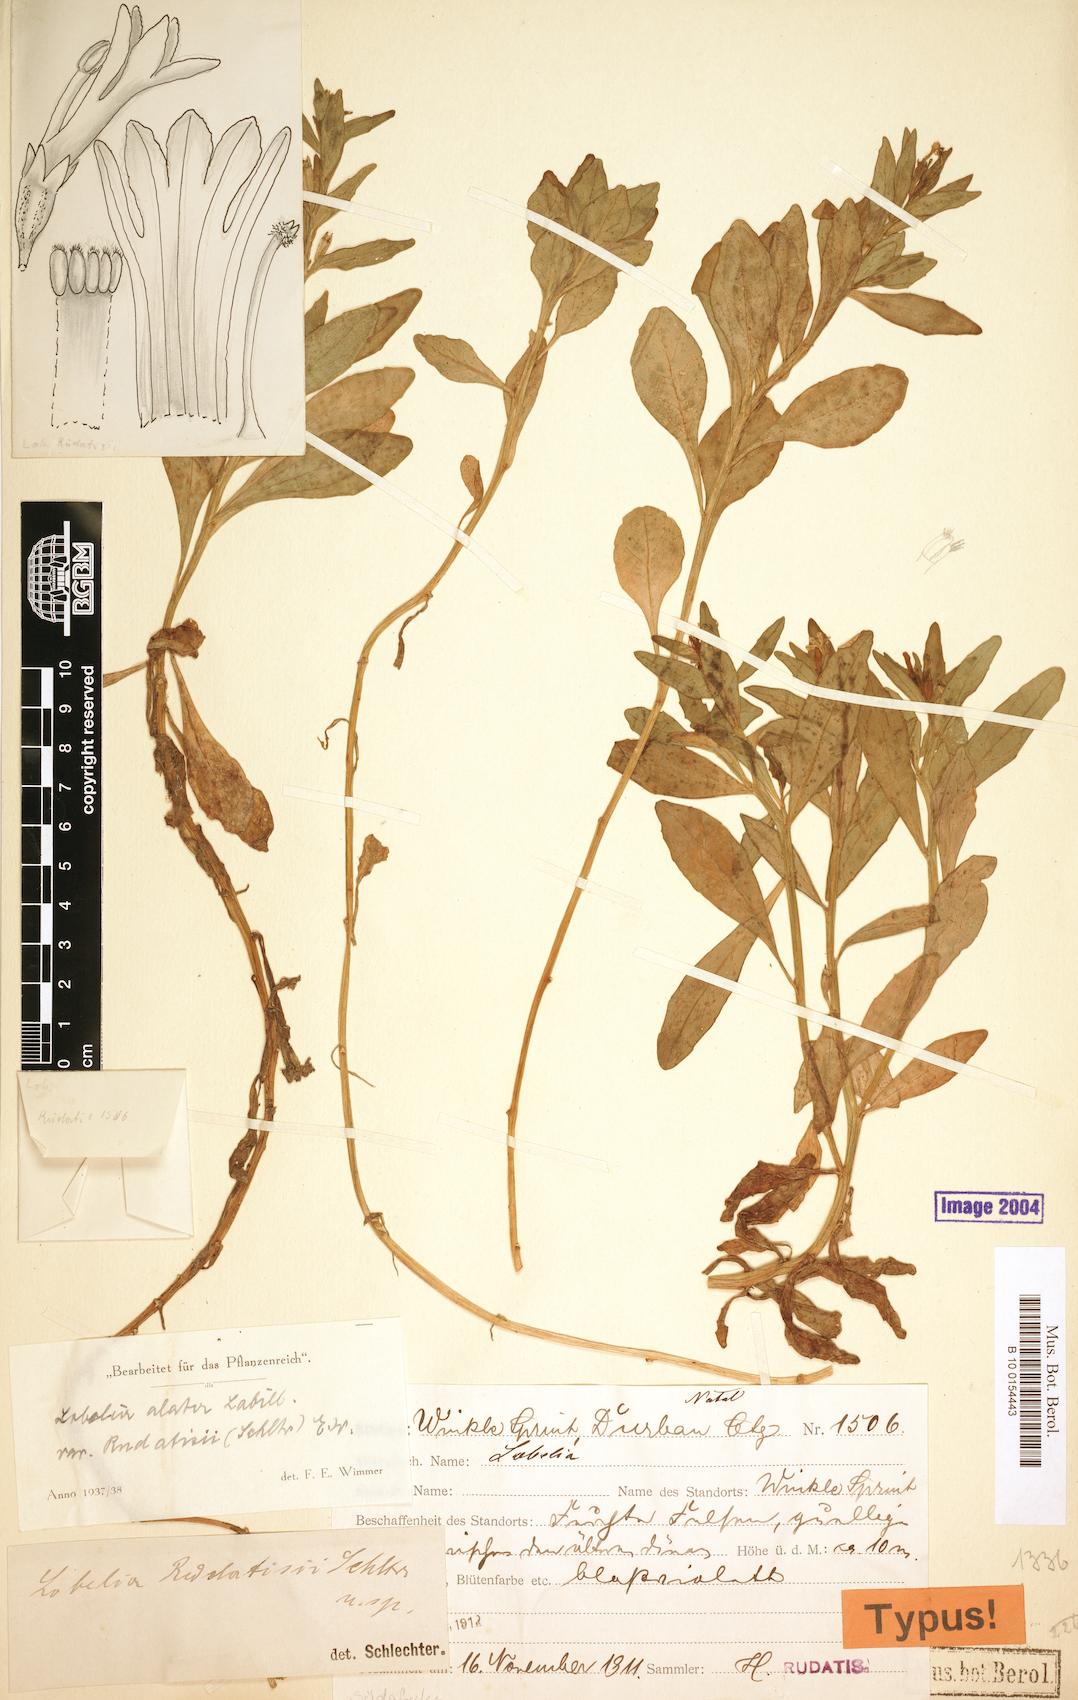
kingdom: Plantae
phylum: Tracheophyta
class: Magnoliopsida
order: Asterales
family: Campanulaceae
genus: Lobelia
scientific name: Lobelia anceps
